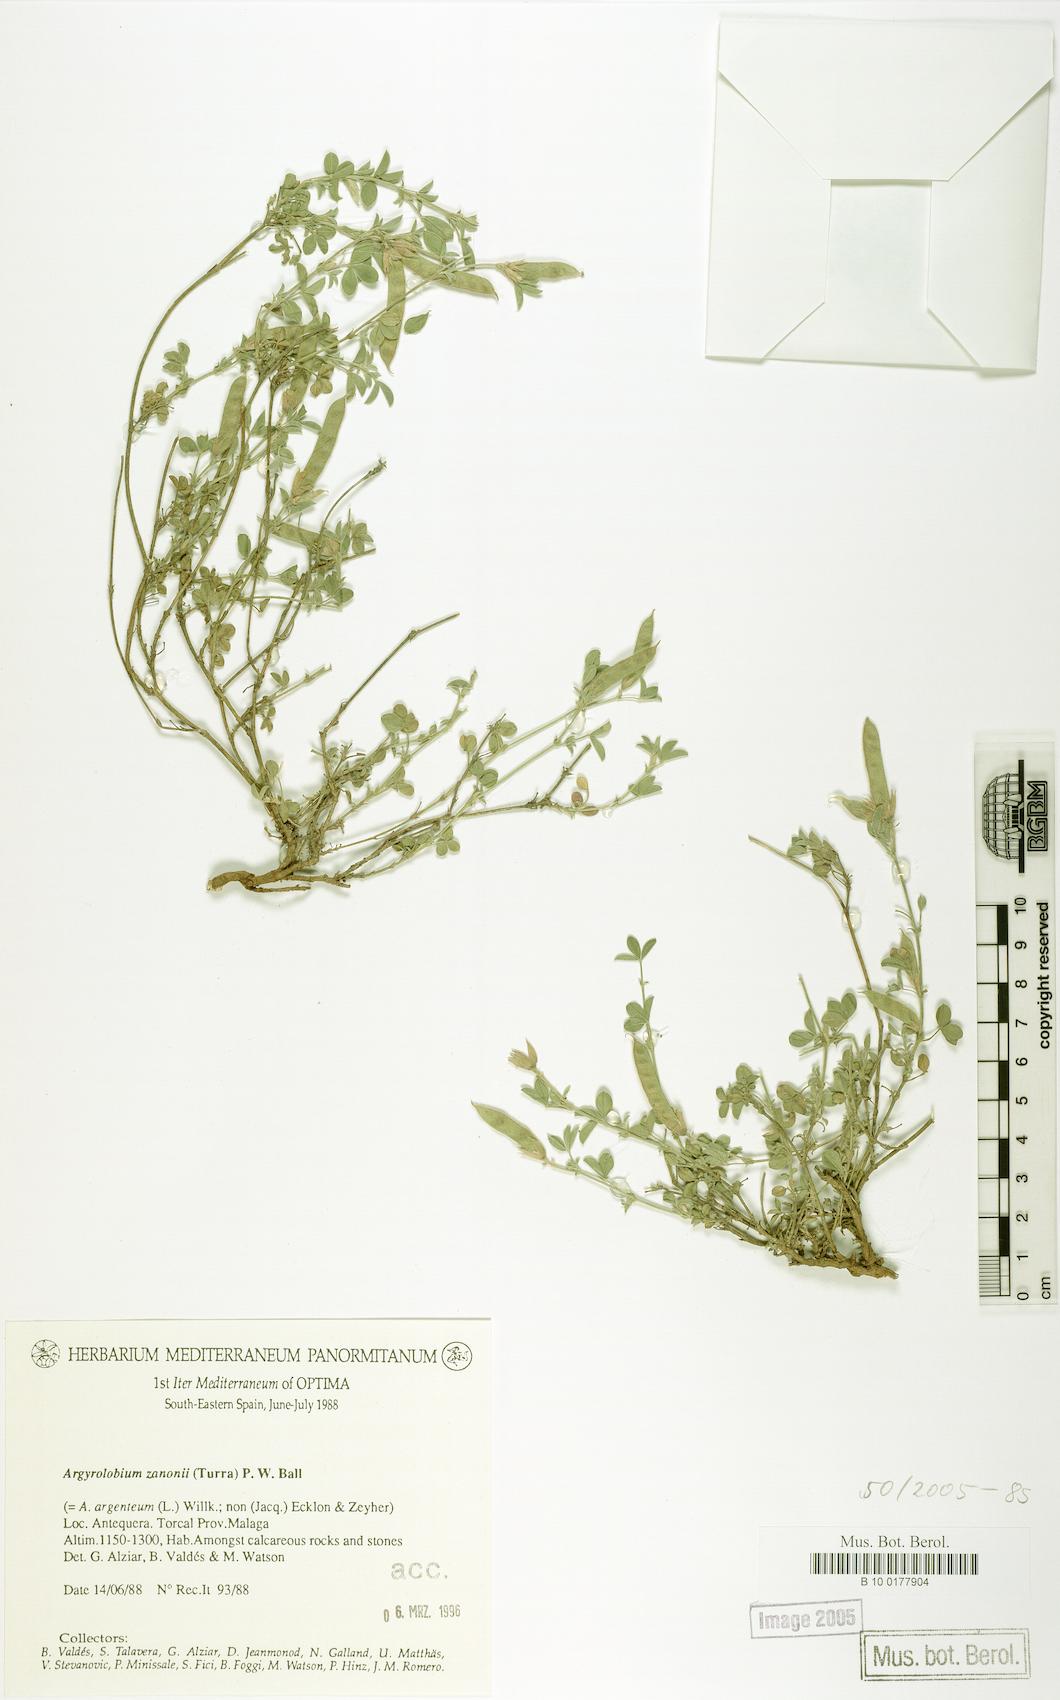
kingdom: Plantae
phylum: Tracheophyta
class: Magnoliopsida
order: Fabales
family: Fabaceae
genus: Argyrolobium
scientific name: Argyrolobium zanonii
